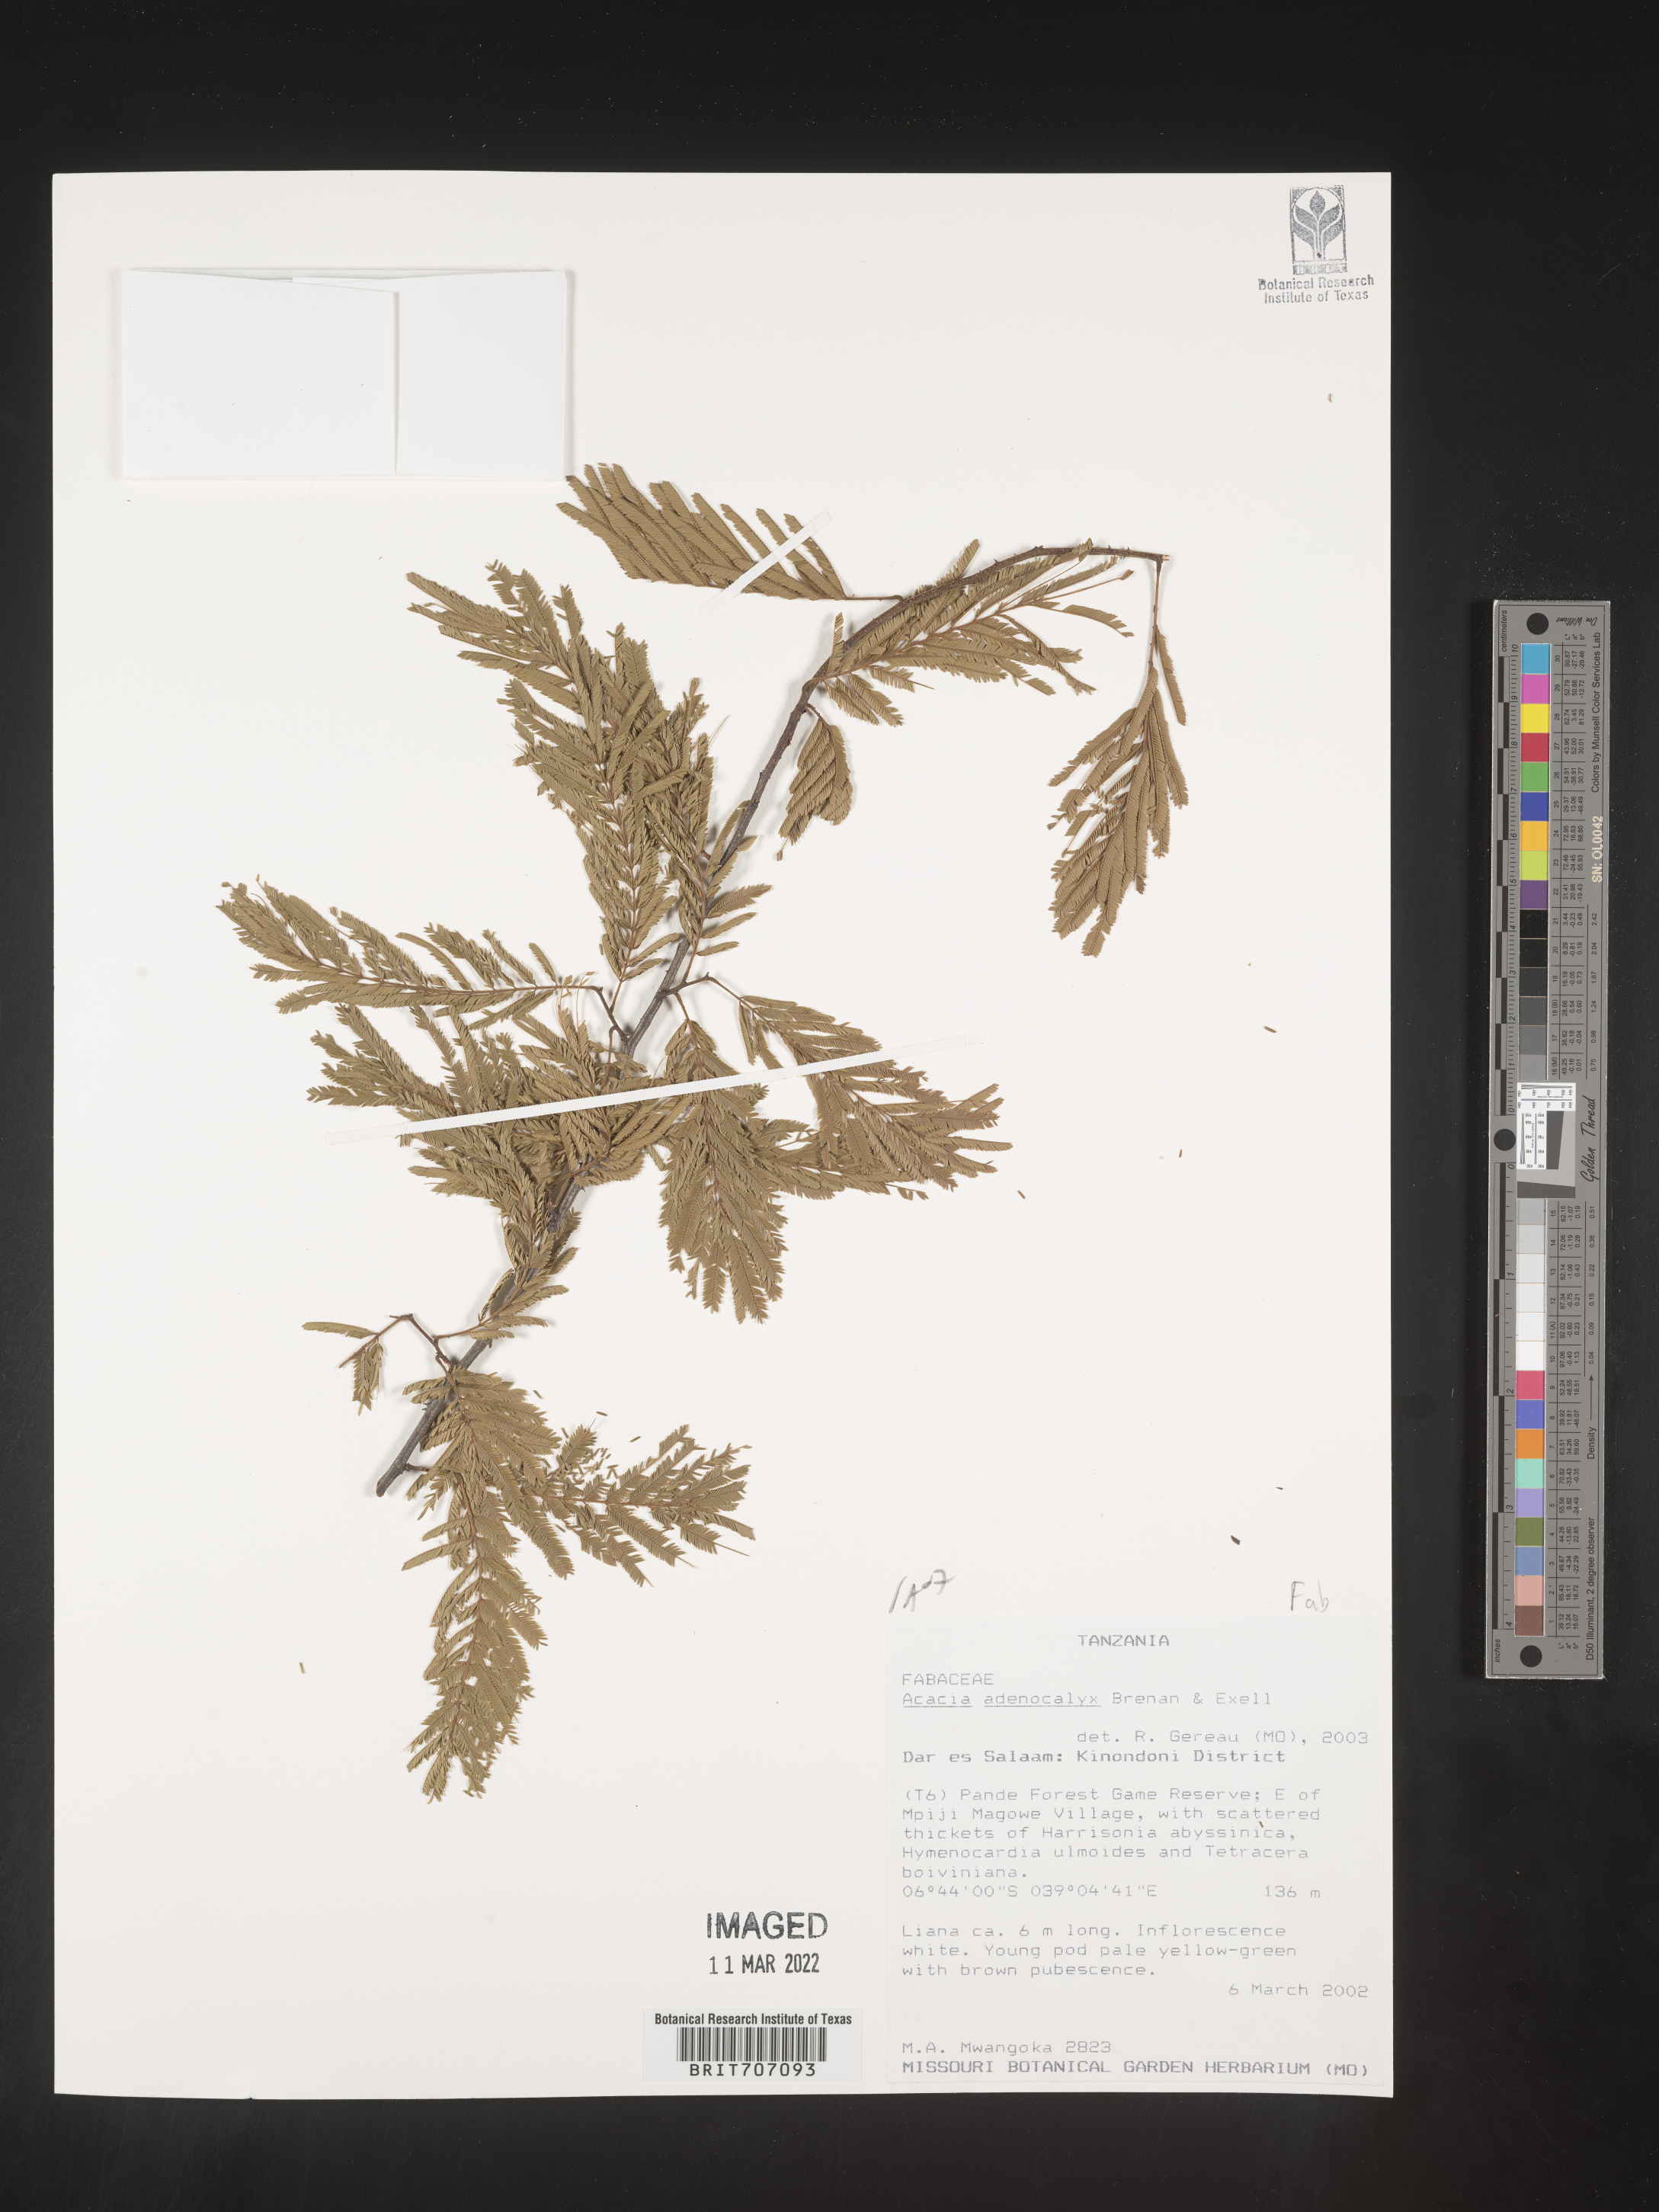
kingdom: Plantae
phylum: Tracheophyta
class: Magnoliopsida
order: Fabales
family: Fabaceae
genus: Acacia
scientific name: Acacia
